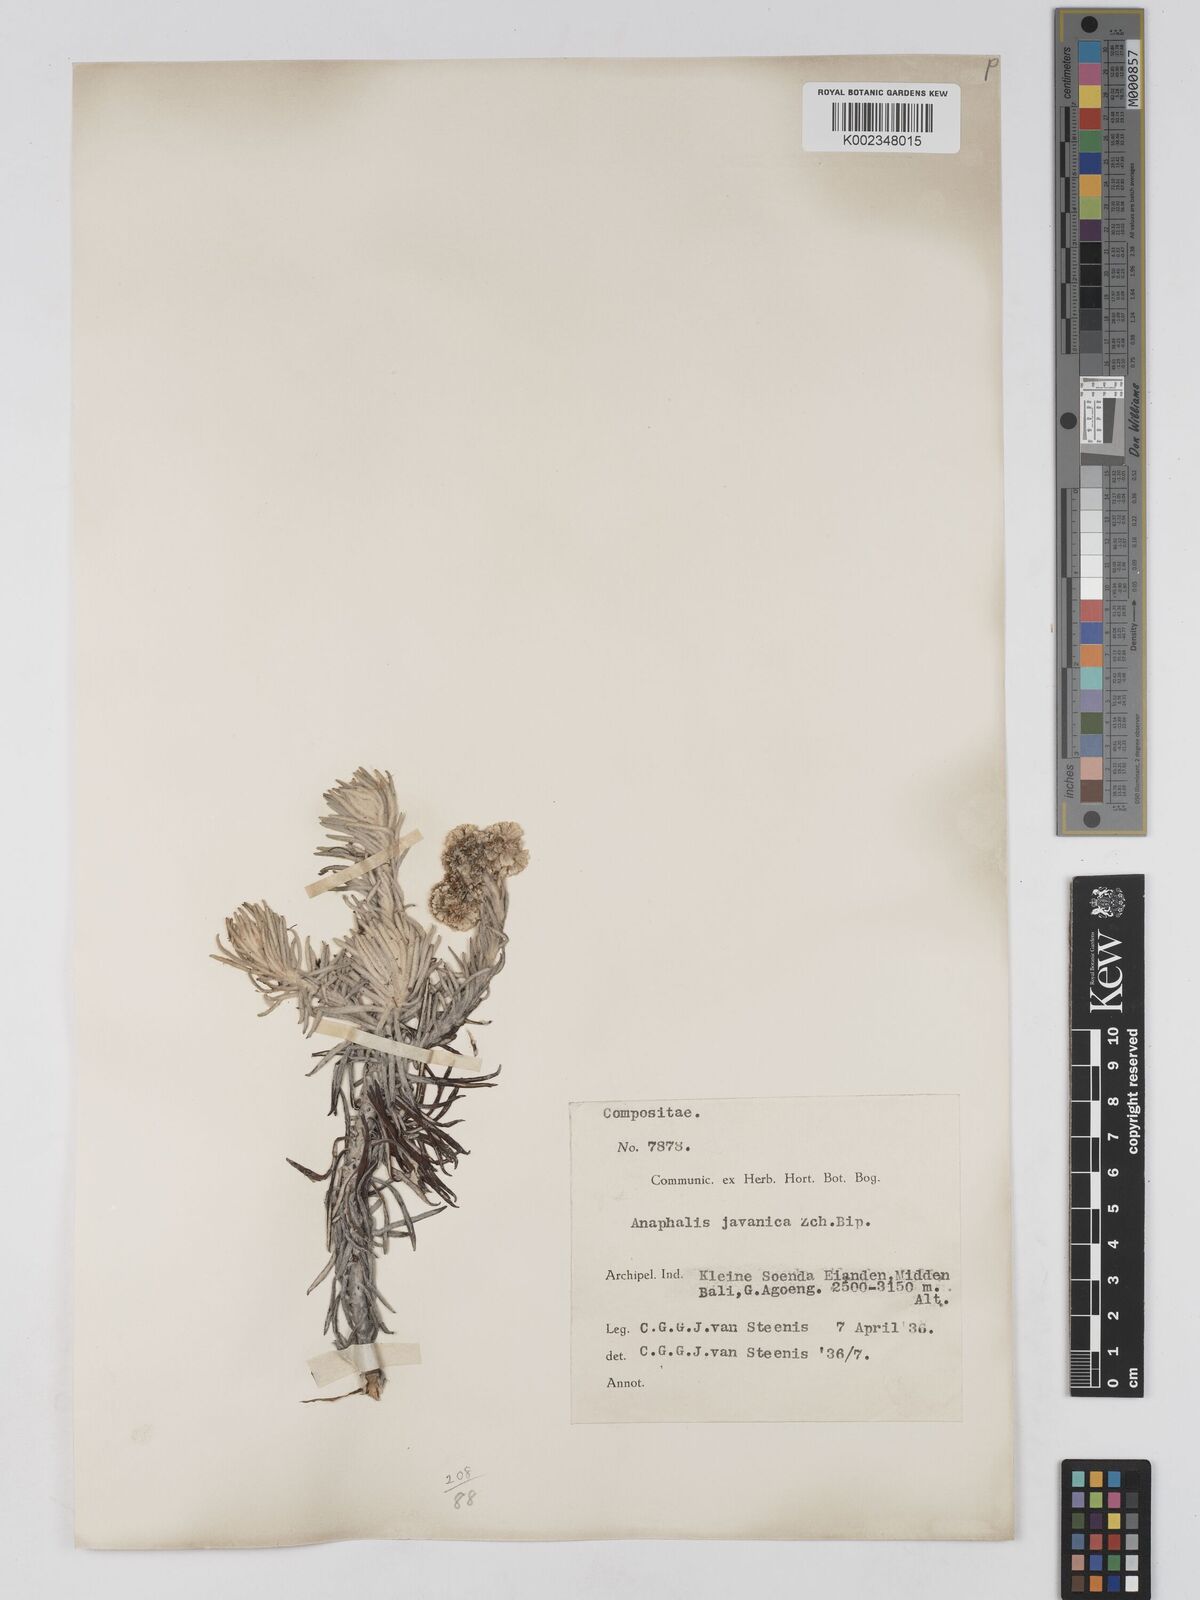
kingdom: Plantae
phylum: Tracheophyta
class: Magnoliopsida
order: Asterales
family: Asteraceae
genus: Anaphalis
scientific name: Anaphalis javanica
